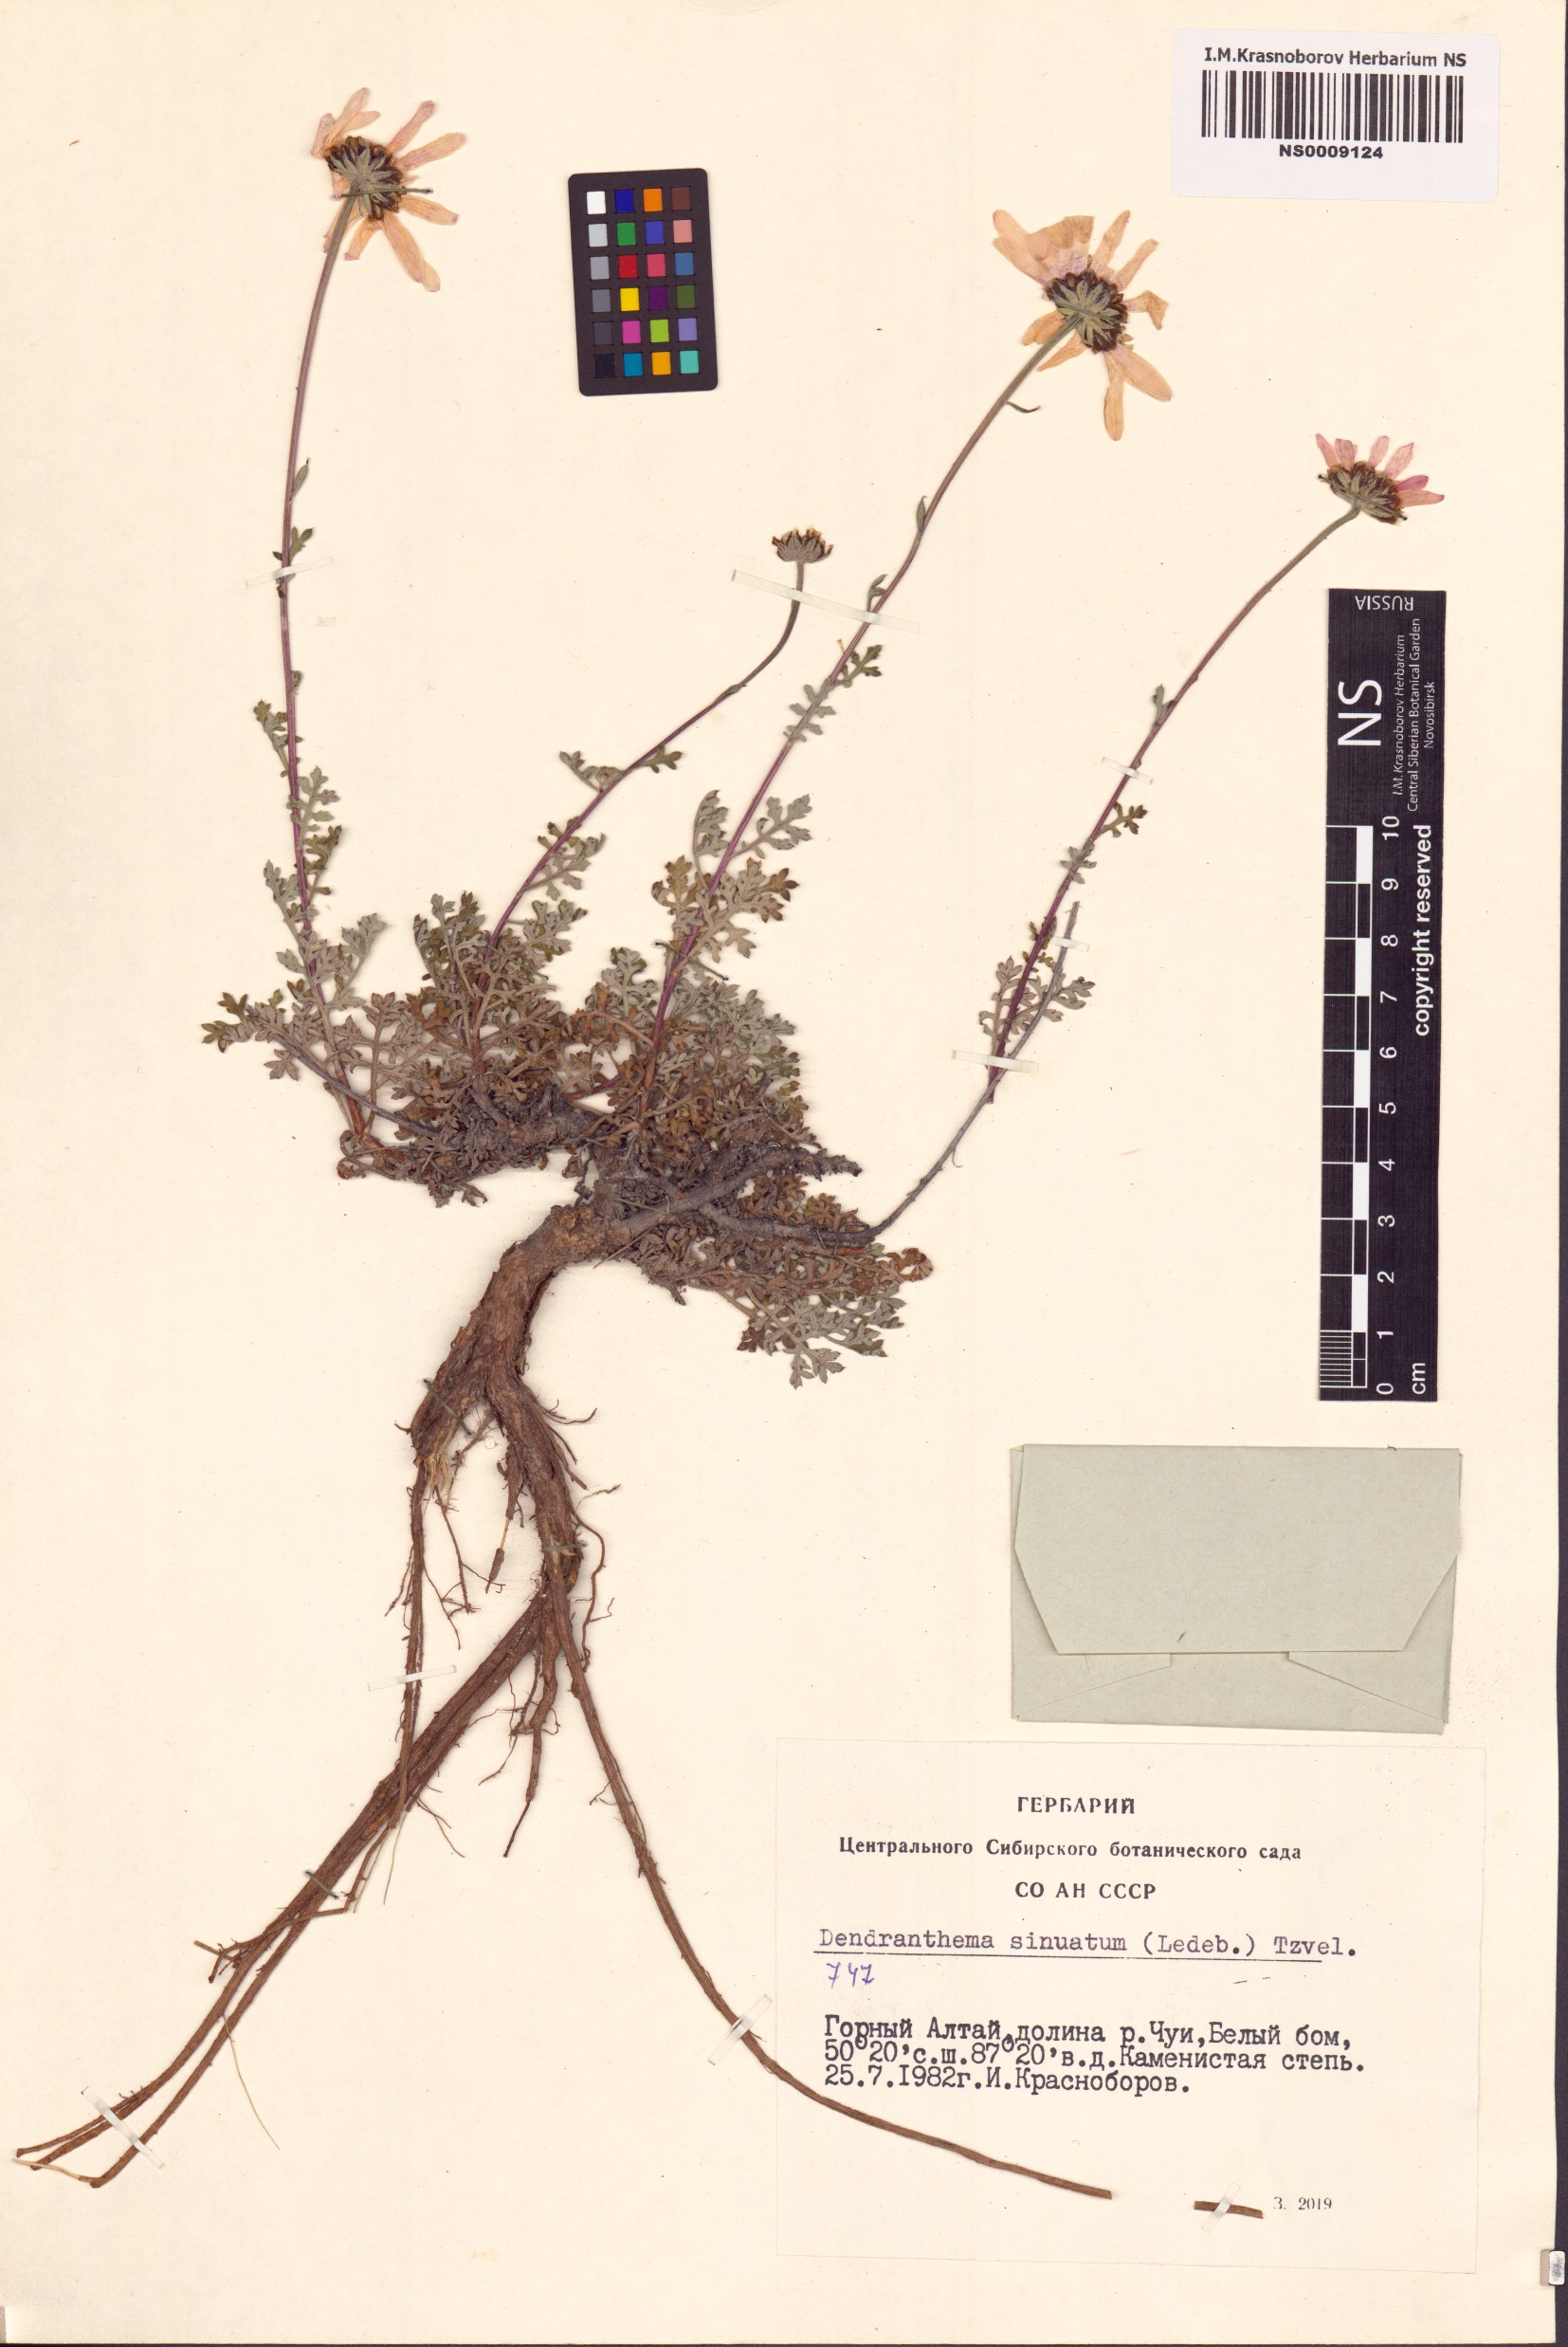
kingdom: Plantae
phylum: Tracheophyta
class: Magnoliopsida
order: Asterales
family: Asteraceae
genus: Chrysanthemum
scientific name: Chrysanthemum sinuatum
